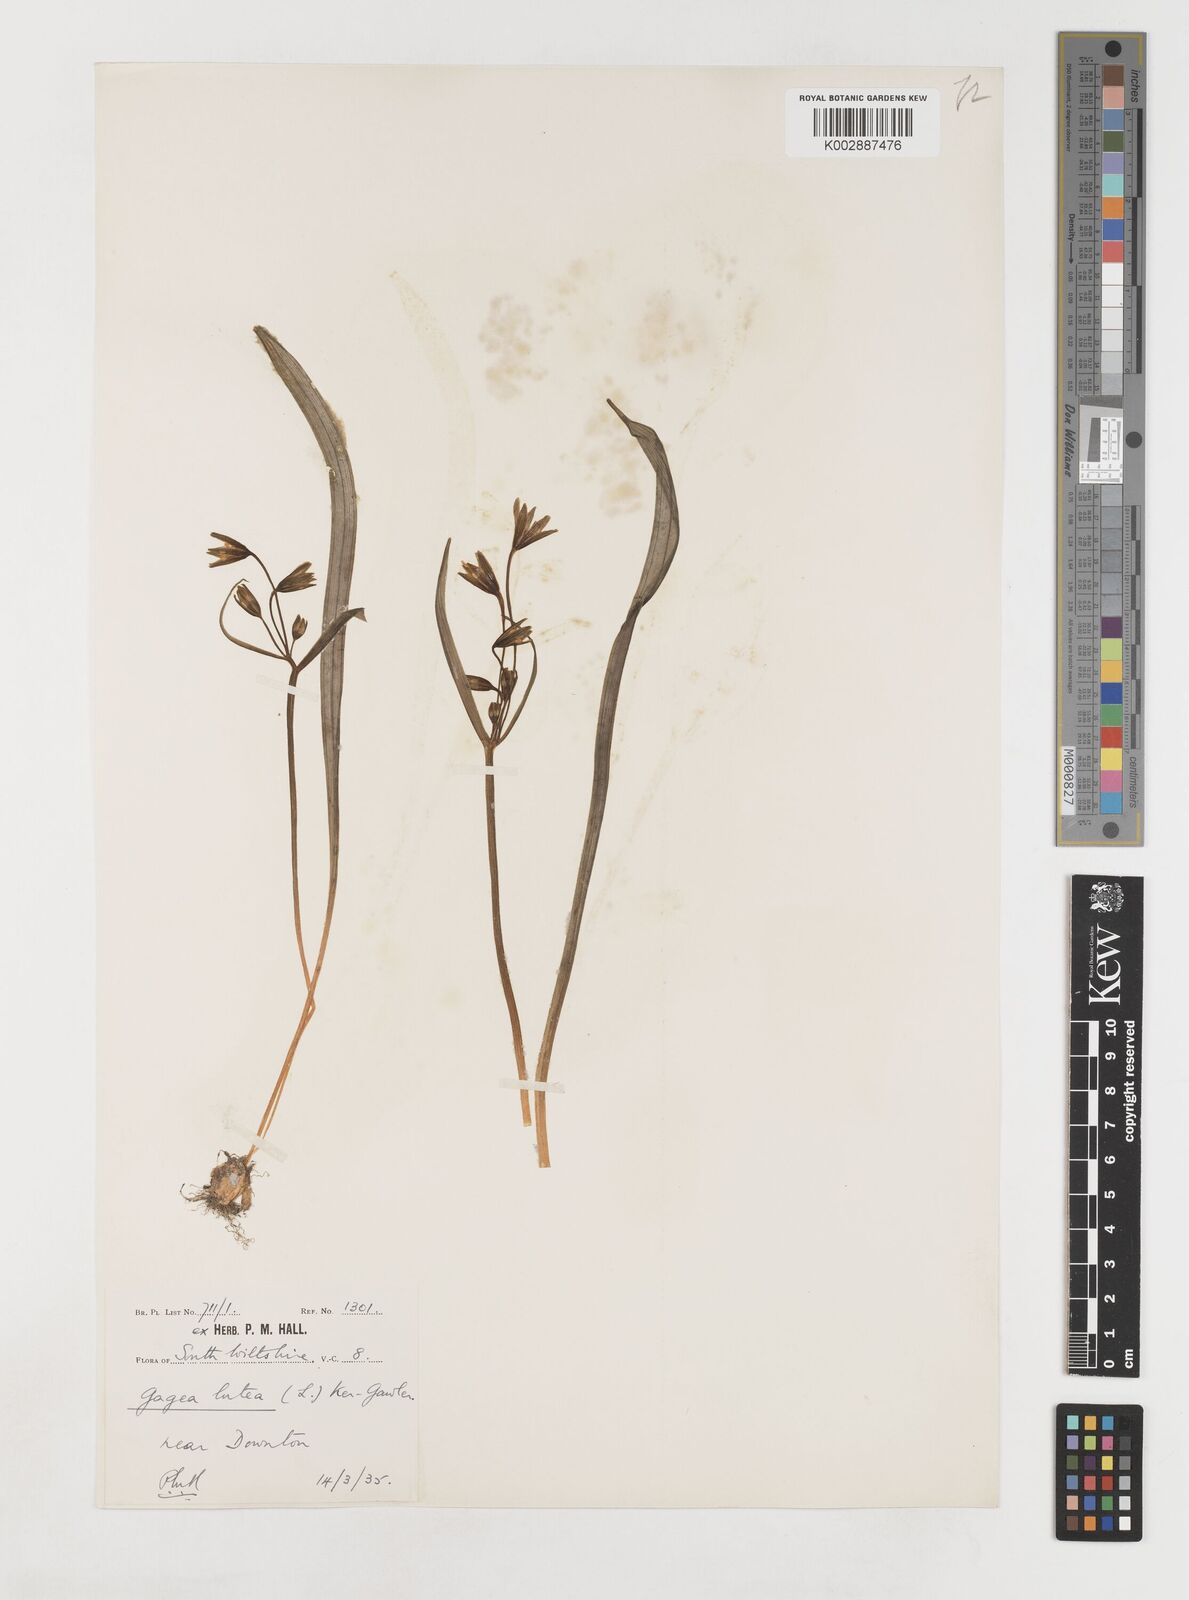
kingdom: Plantae
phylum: Tracheophyta
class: Liliopsida
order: Liliales
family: Liliaceae
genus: Gagea
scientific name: Gagea lutea
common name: Yellow star-of-bethlehem
